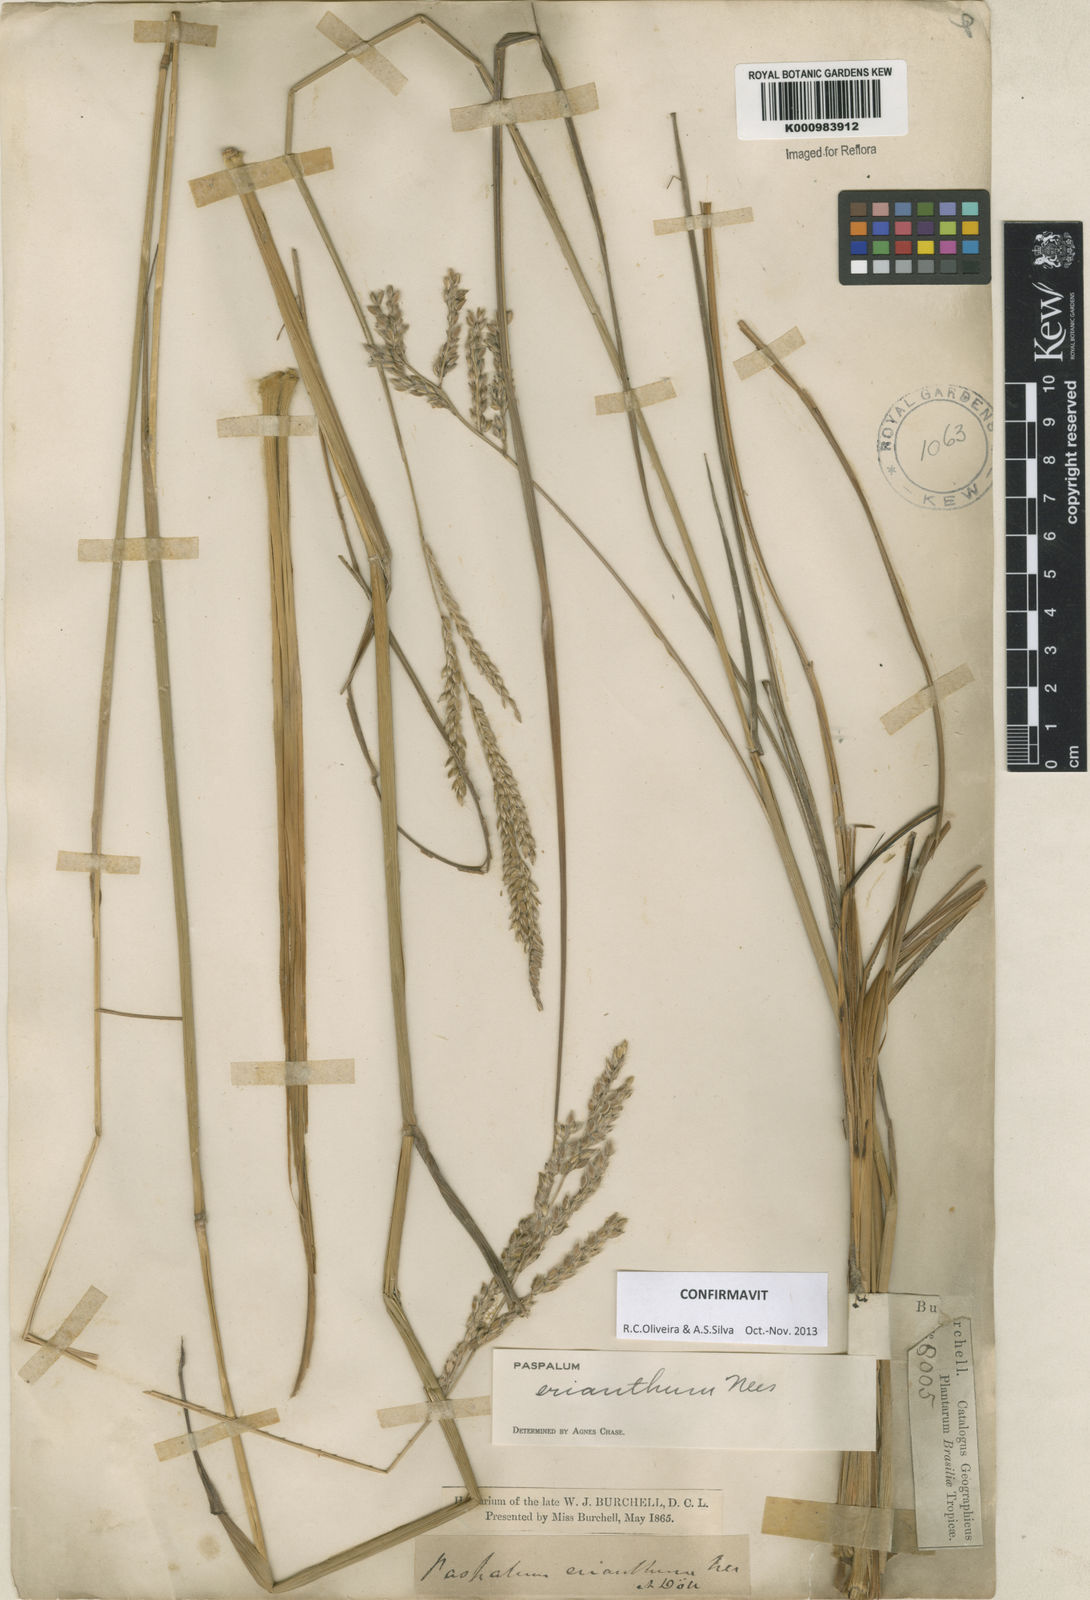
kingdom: Plantae
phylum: Tracheophyta
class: Liliopsida
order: Poales
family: Poaceae
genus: Paspalum
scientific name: Paspalum erianthum
